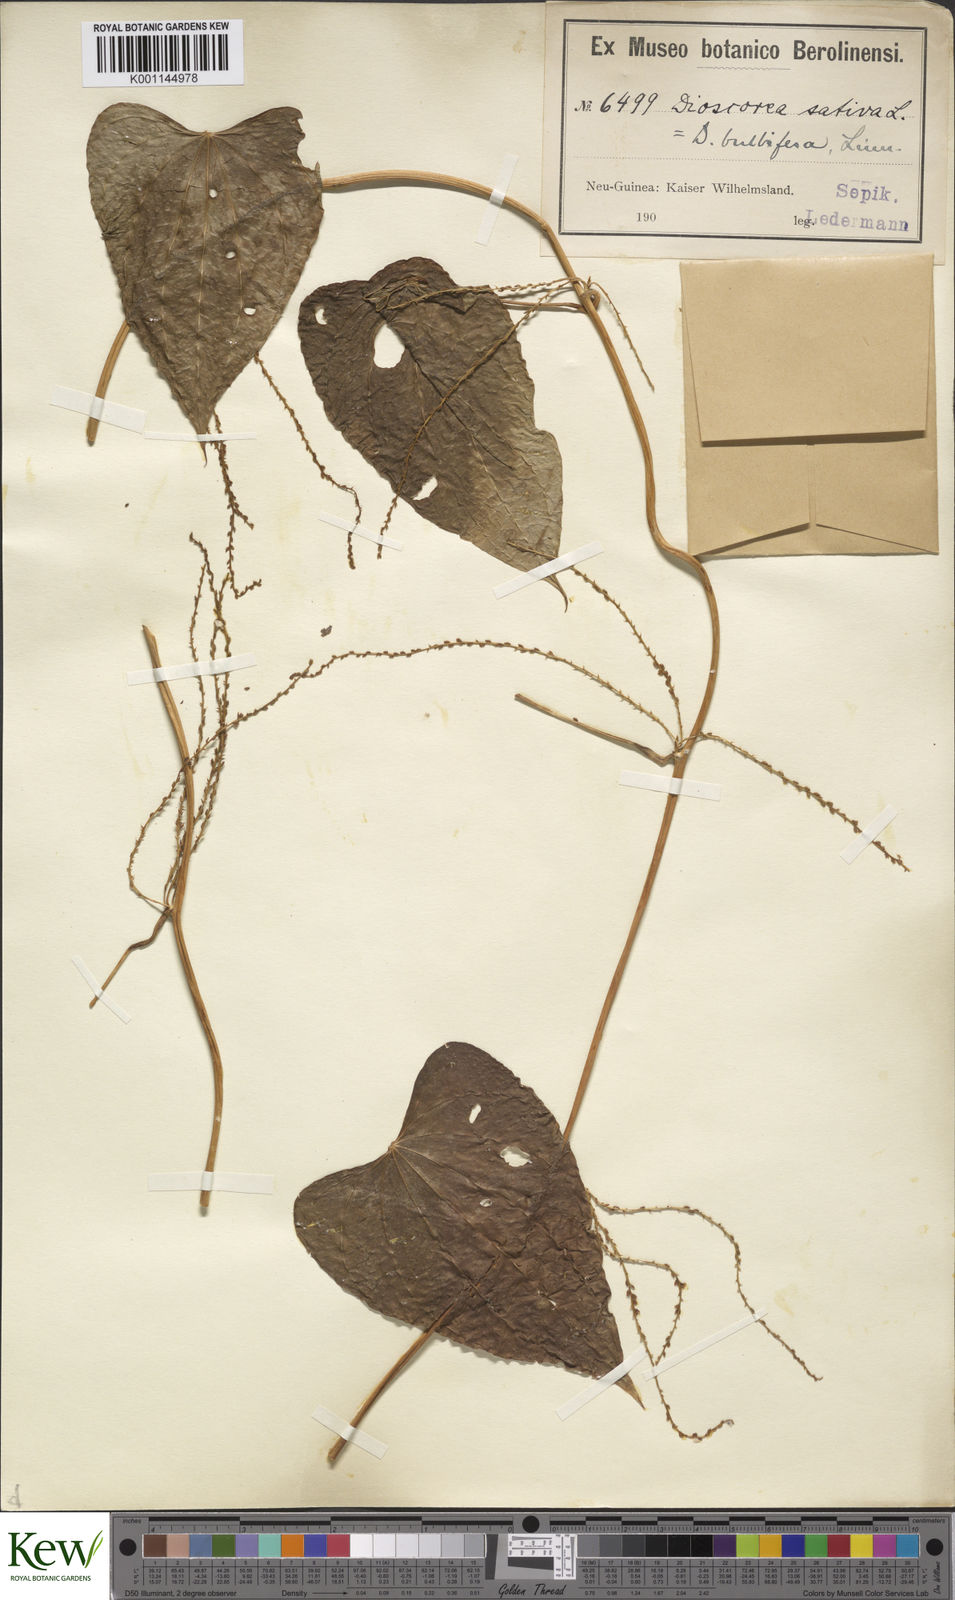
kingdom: Plantae
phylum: Tracheophyta
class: Liliopsida
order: Dioscoreales
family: Dioscoreaceae
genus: Dioscorea
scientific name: Dioscorea bulbifera
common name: Air yam
